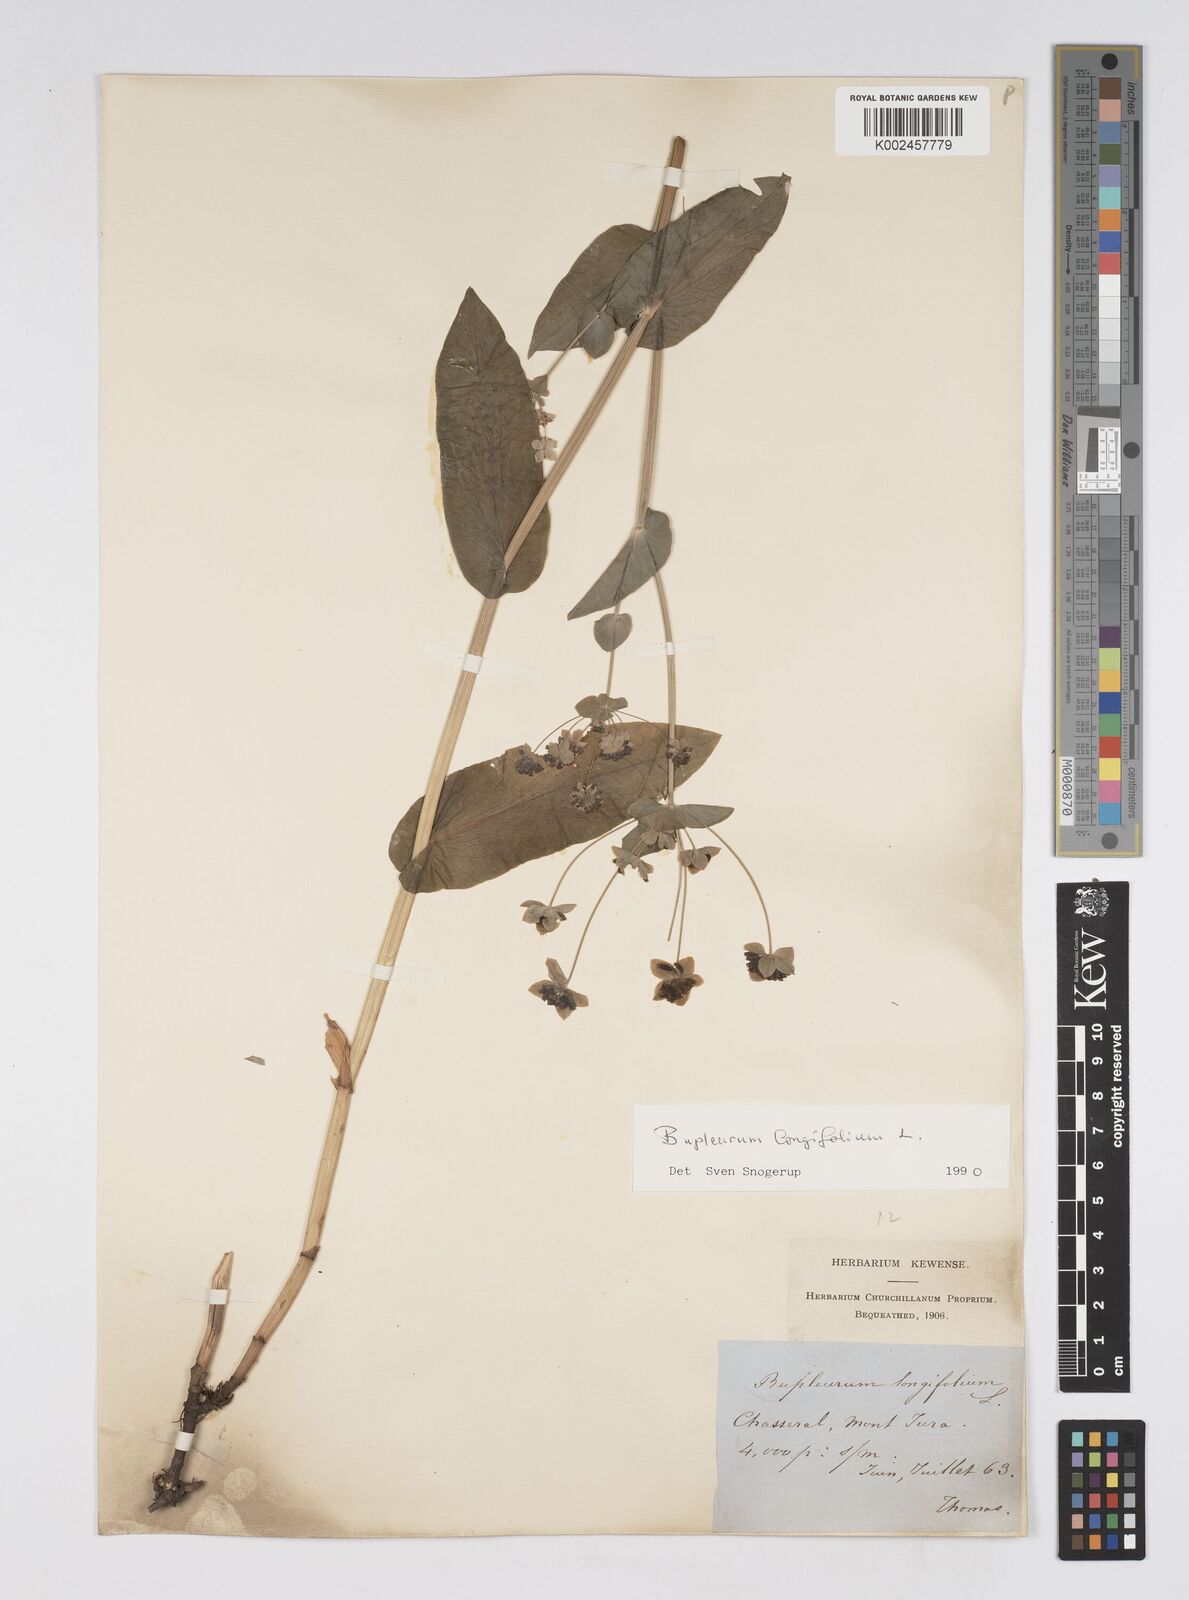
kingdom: Plantae
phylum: Tracheophyta
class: Magnoliopsida
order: Apiales
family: Apiaceae
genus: Bupleurum
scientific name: Bupleurum longifolium
